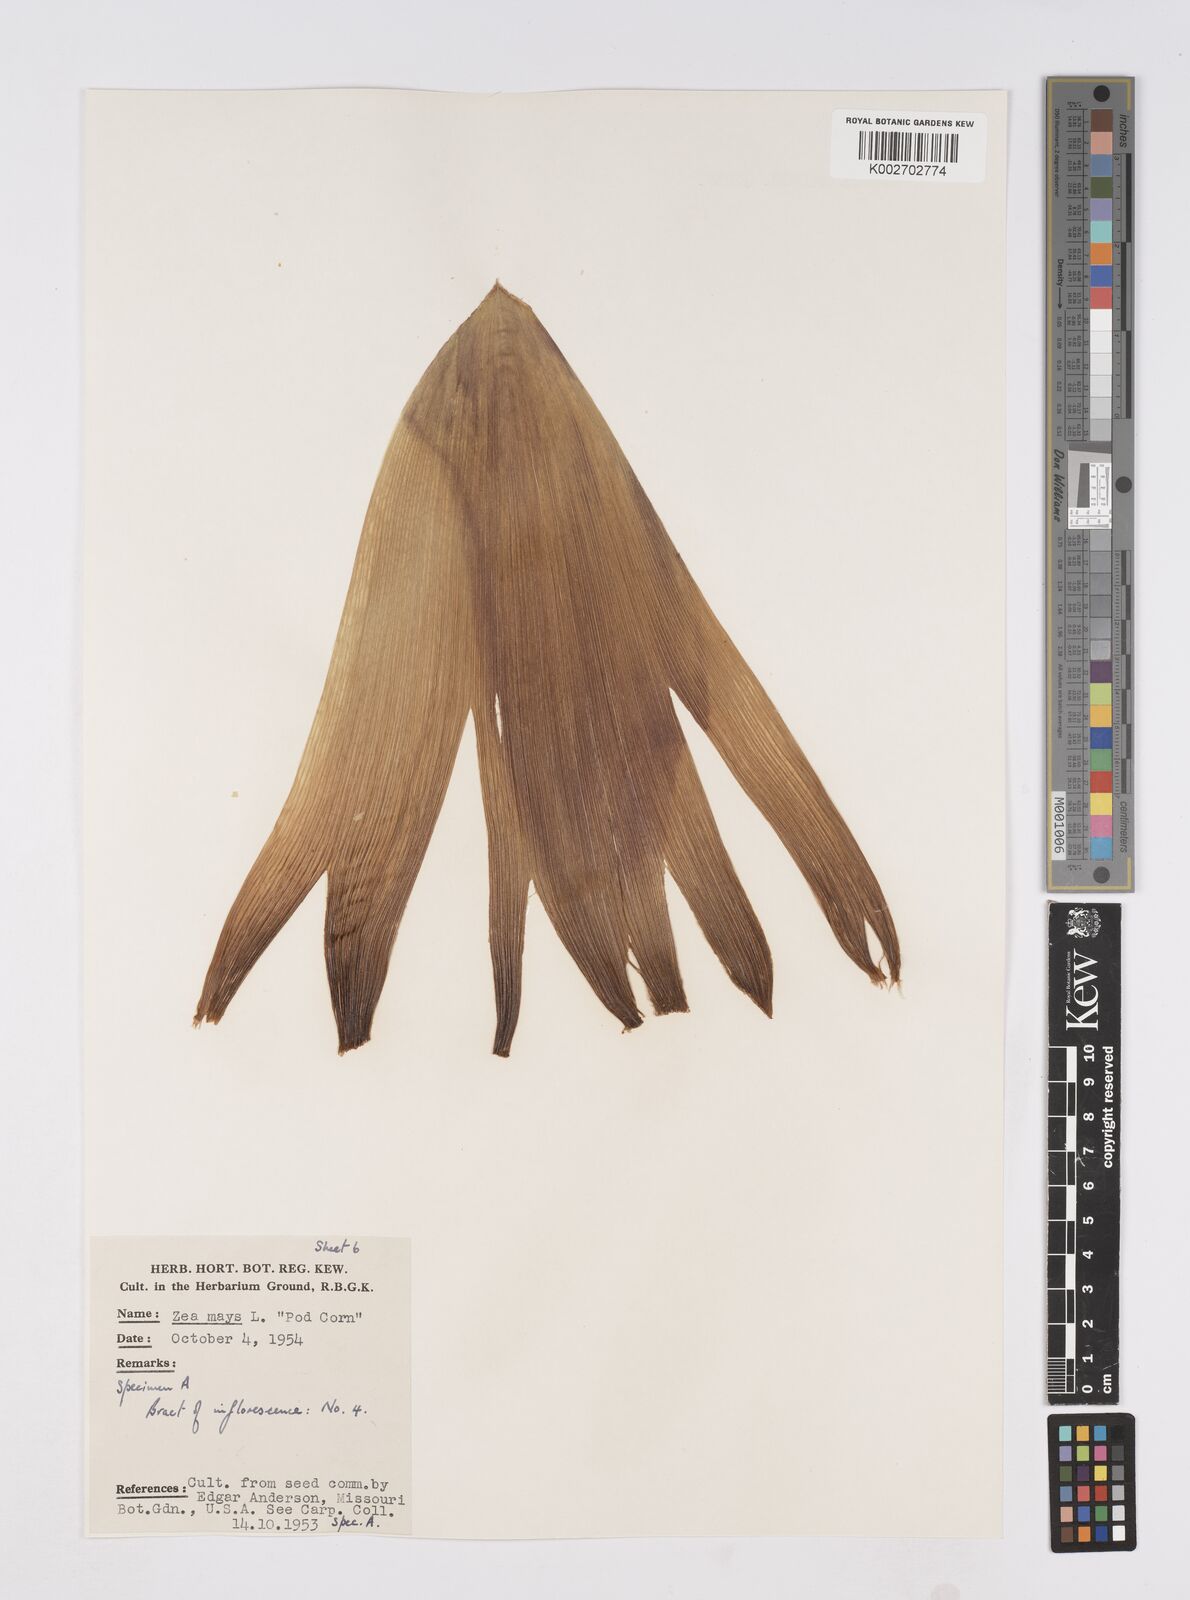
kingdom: Plantae
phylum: Tracheophyta
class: Liliopsida
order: Poales
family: Poaceae
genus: Zea
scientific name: Zea mays
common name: Maize
